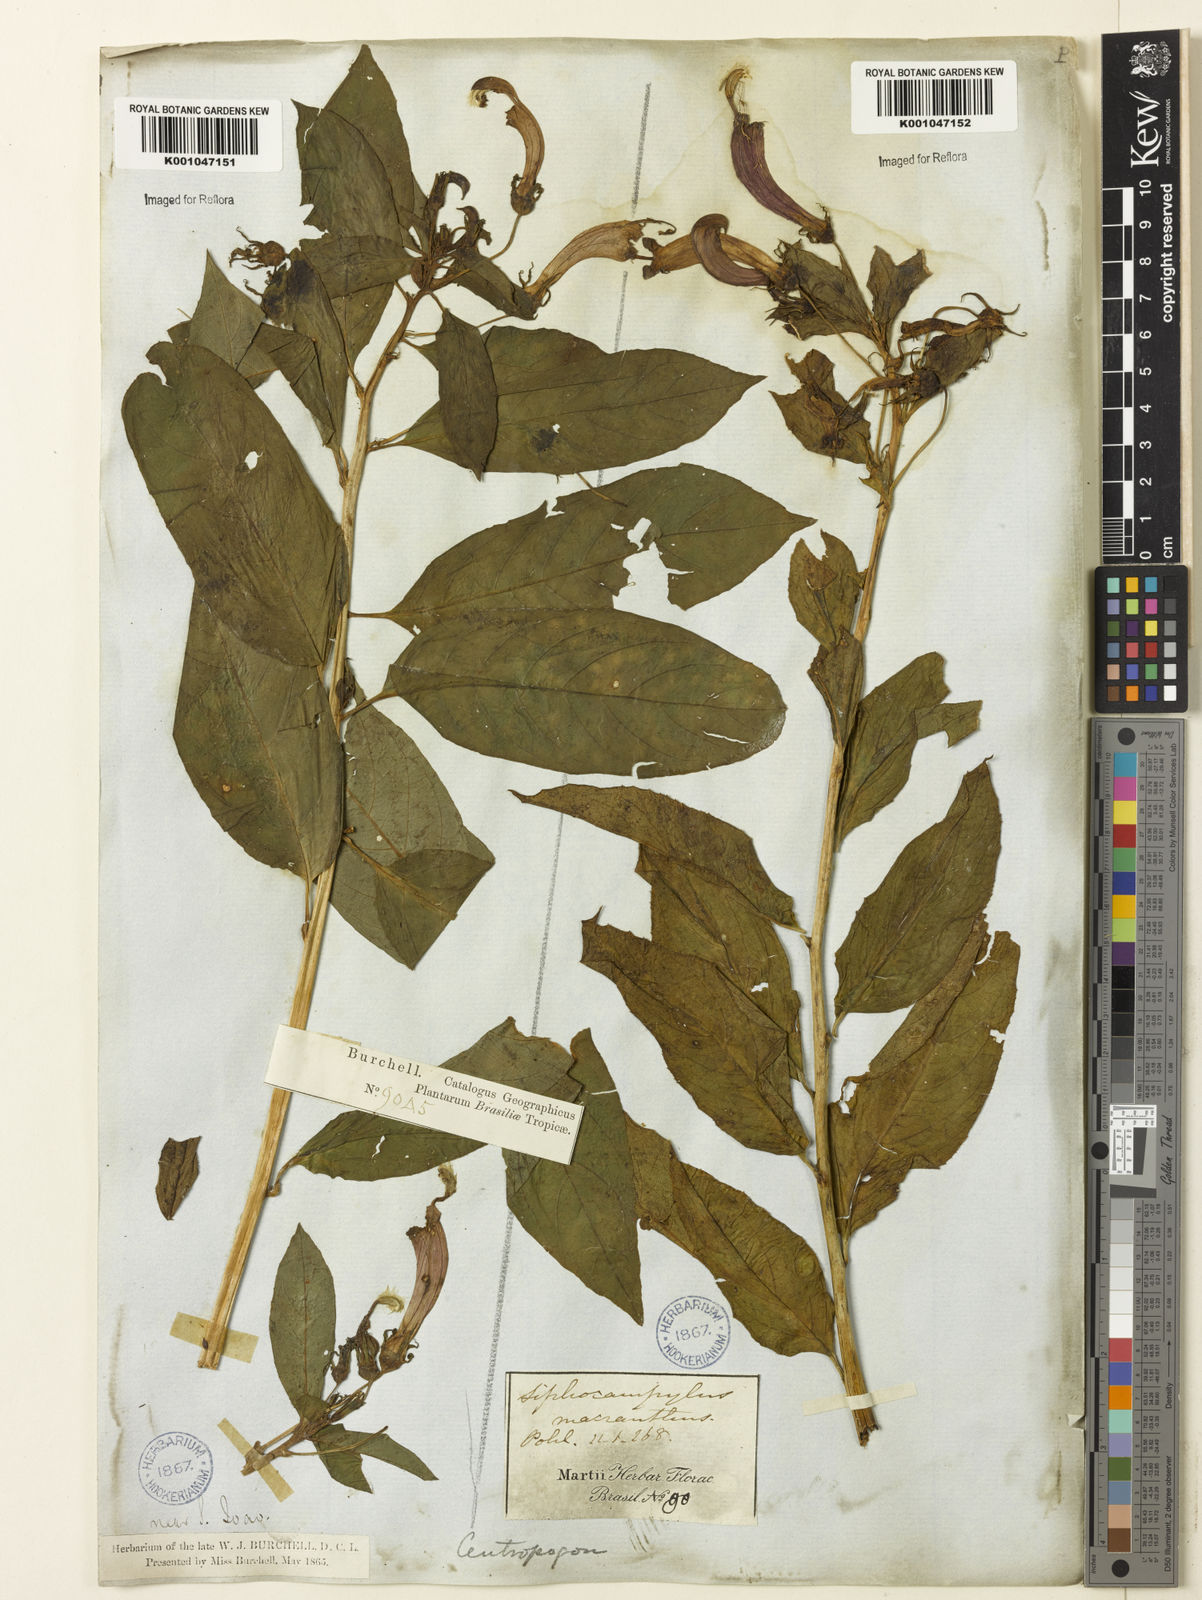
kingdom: Plantae
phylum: Tracheophyta
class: Magnoliopsida
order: Asterales
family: Campanulaceae
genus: Centropogon
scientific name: Centropogon cornutus
